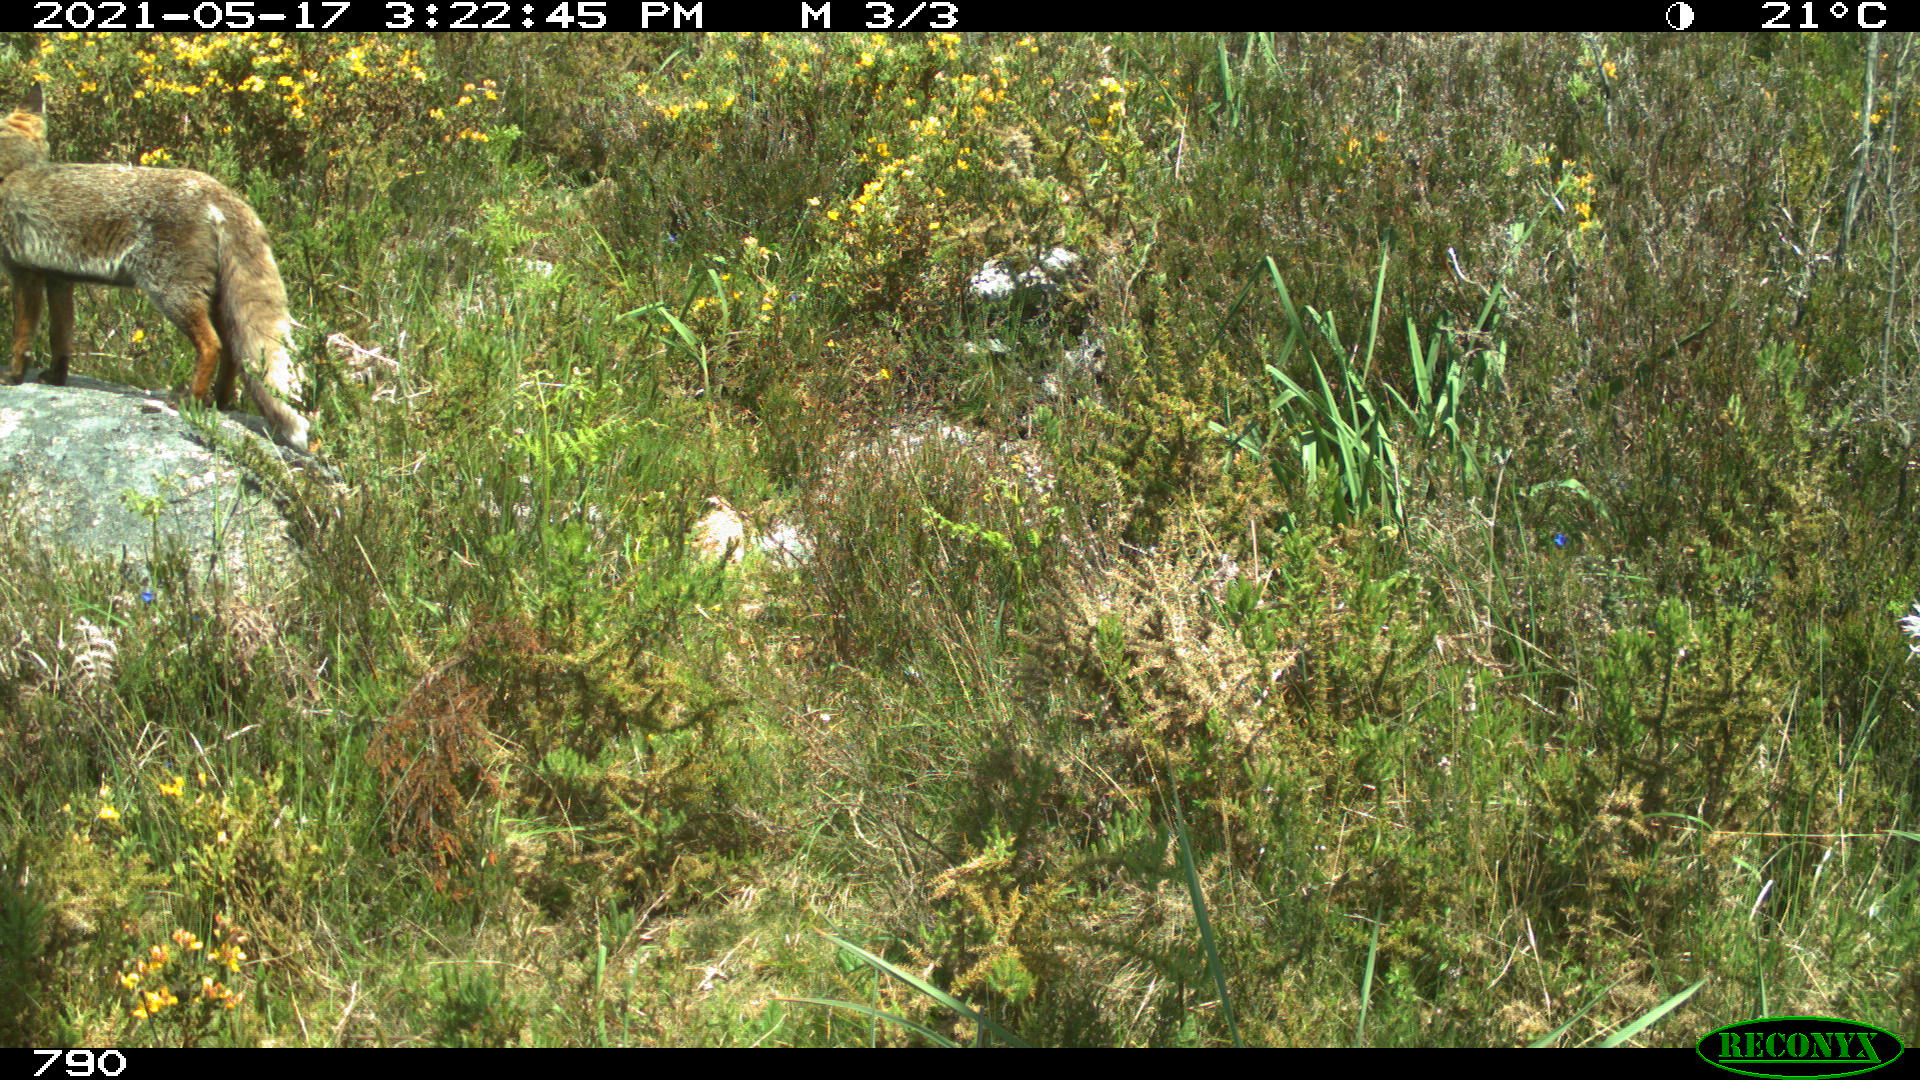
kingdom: Animalia
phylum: Chordata
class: Mammalia
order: Carnivora
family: Canidae
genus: Vulpes
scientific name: Vulpes vulpes
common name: Red fox
